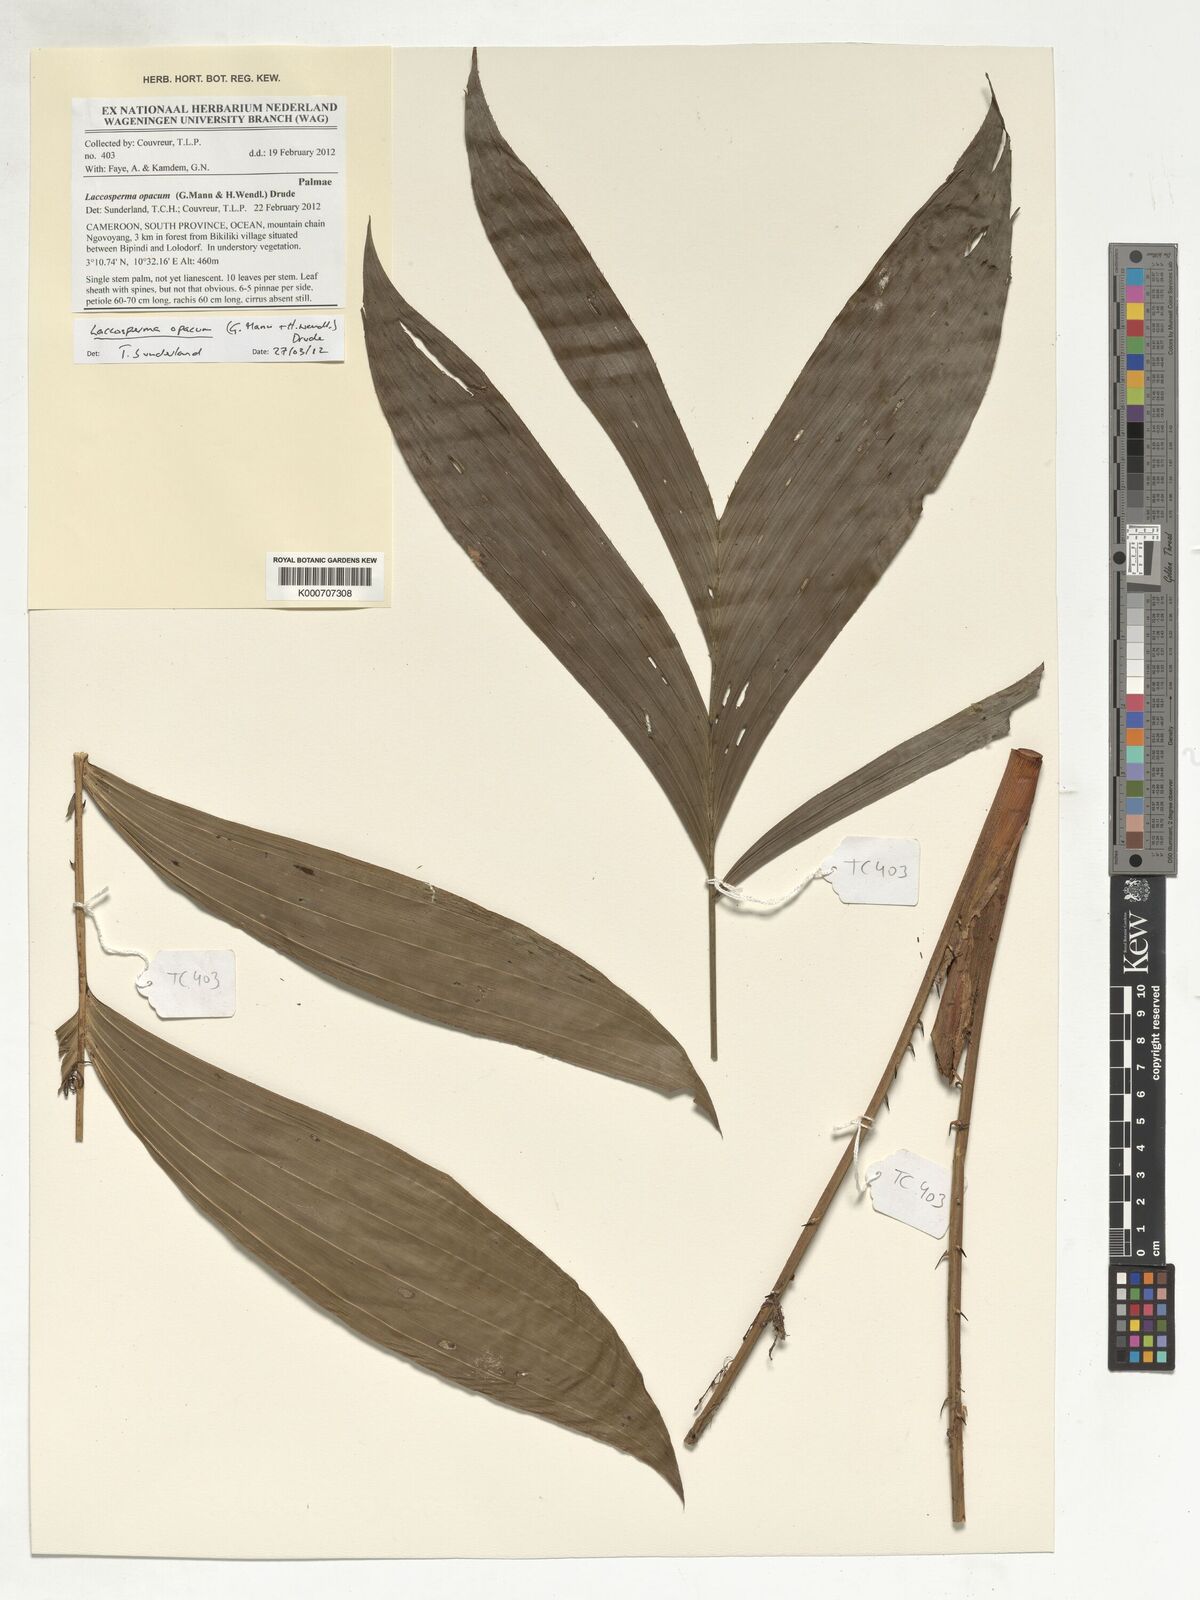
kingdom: Plantae
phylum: Tracheophyta
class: Liliopsida
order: Arecales
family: Arecaceae
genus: Laccosperma
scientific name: Laccosperma opacum
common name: Rattan
